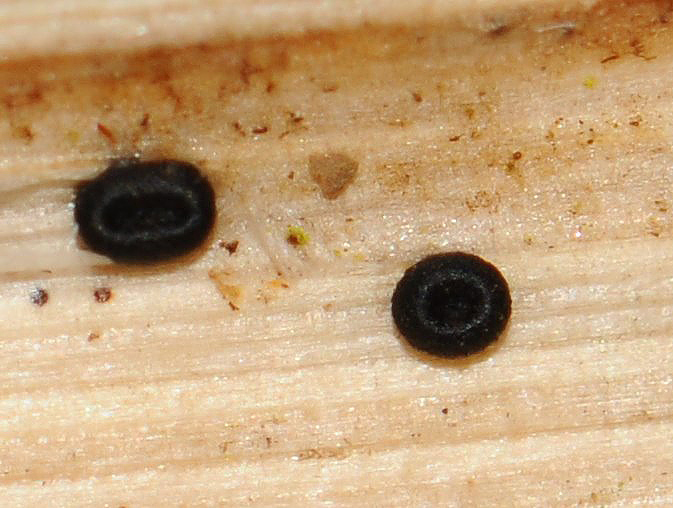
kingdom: Fungi
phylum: Ascomycota
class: Leotiomycetes
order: Helotiales
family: Heterosphaeriaceae
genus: Heterosphaeria
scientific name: Heterosphaeria
